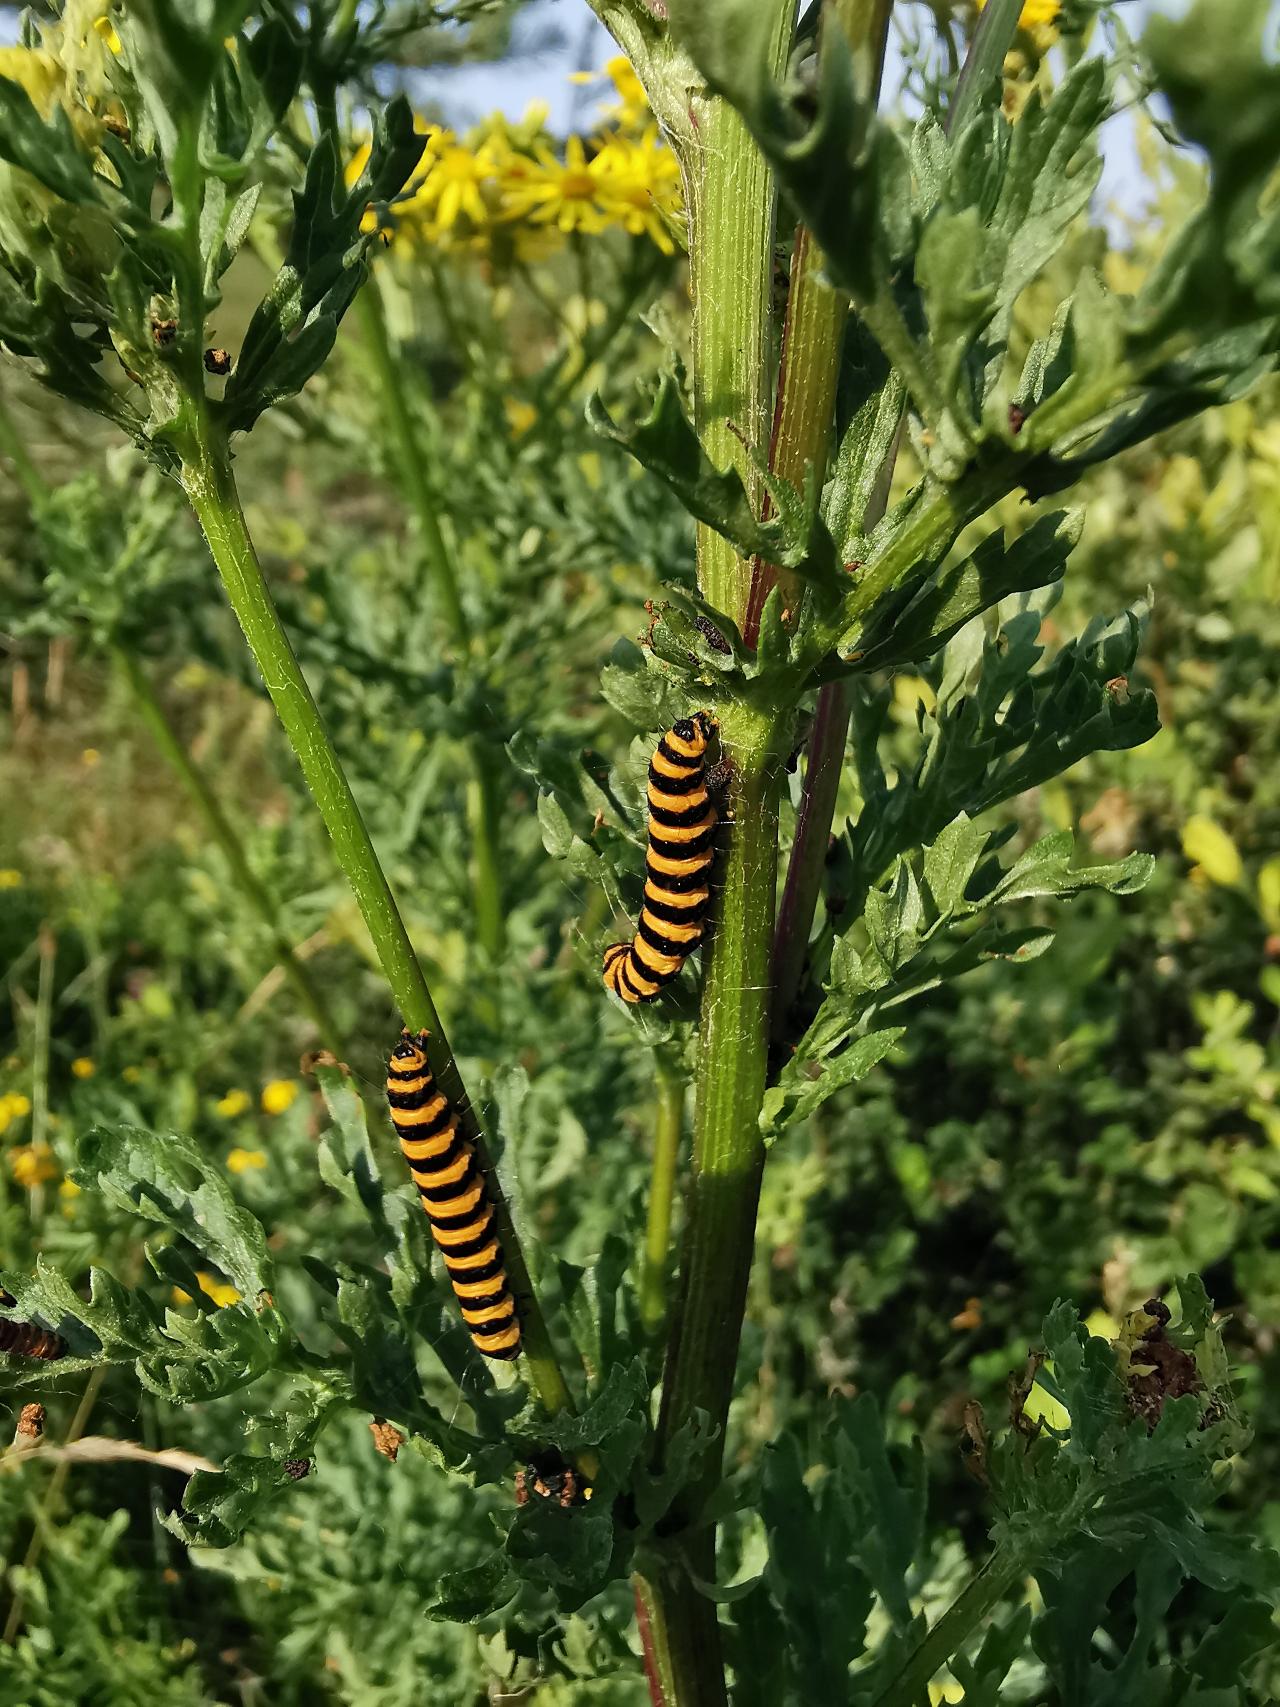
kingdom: Animalia
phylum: Arthropoda
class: Insecta
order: Lepidoptera
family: Erebidae
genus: Tyria
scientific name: Tyria jacobaeae
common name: Blodplet
